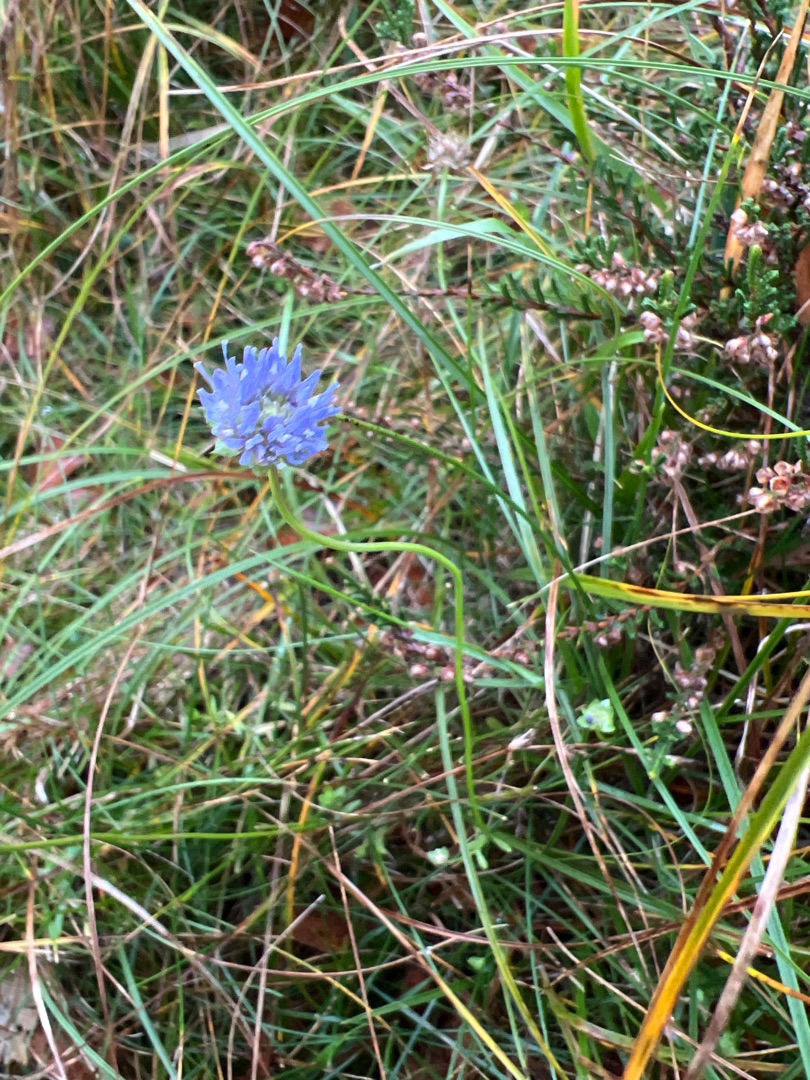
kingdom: Plantae
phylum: Tracheophyta
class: Magnoliopsida
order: Asterales
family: Campanulaceae
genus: Jasione
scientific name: Jasione montana
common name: Blåmunke
